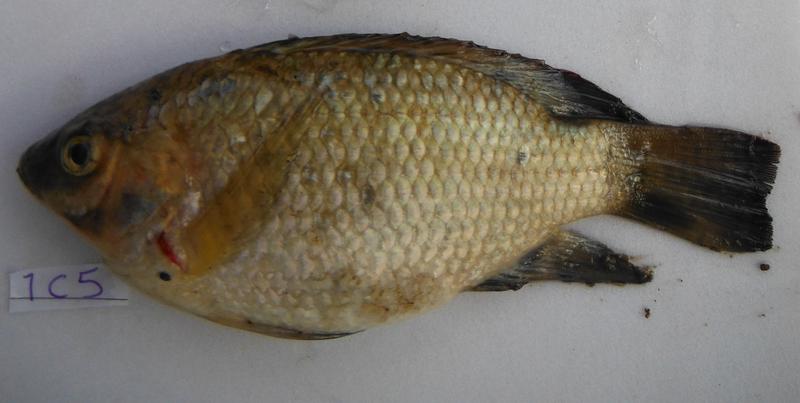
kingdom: Animalia
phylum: Chordata
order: Perciformes
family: Cichlidae
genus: Oreochromis
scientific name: Oreochromis urolepis
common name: Wami tilapia
